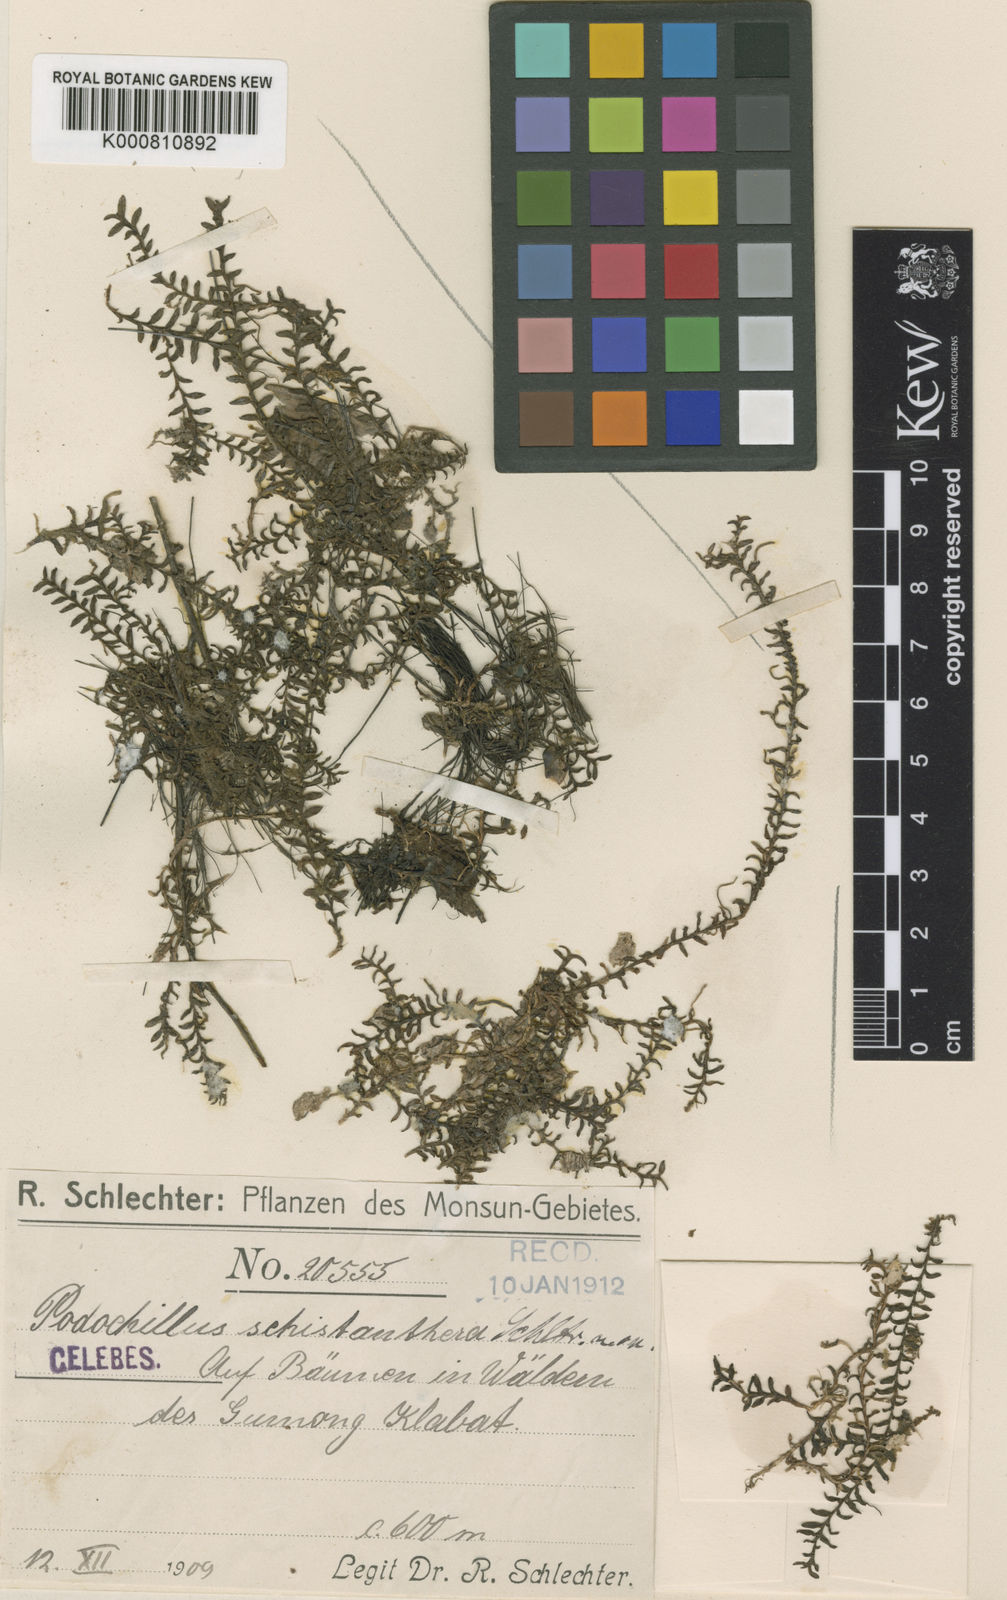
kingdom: Plantae
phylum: Tracheophyta
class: Liliopsida
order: Asparagales
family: Orchidaceae
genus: Podochilus
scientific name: Podochilus schistantherus
